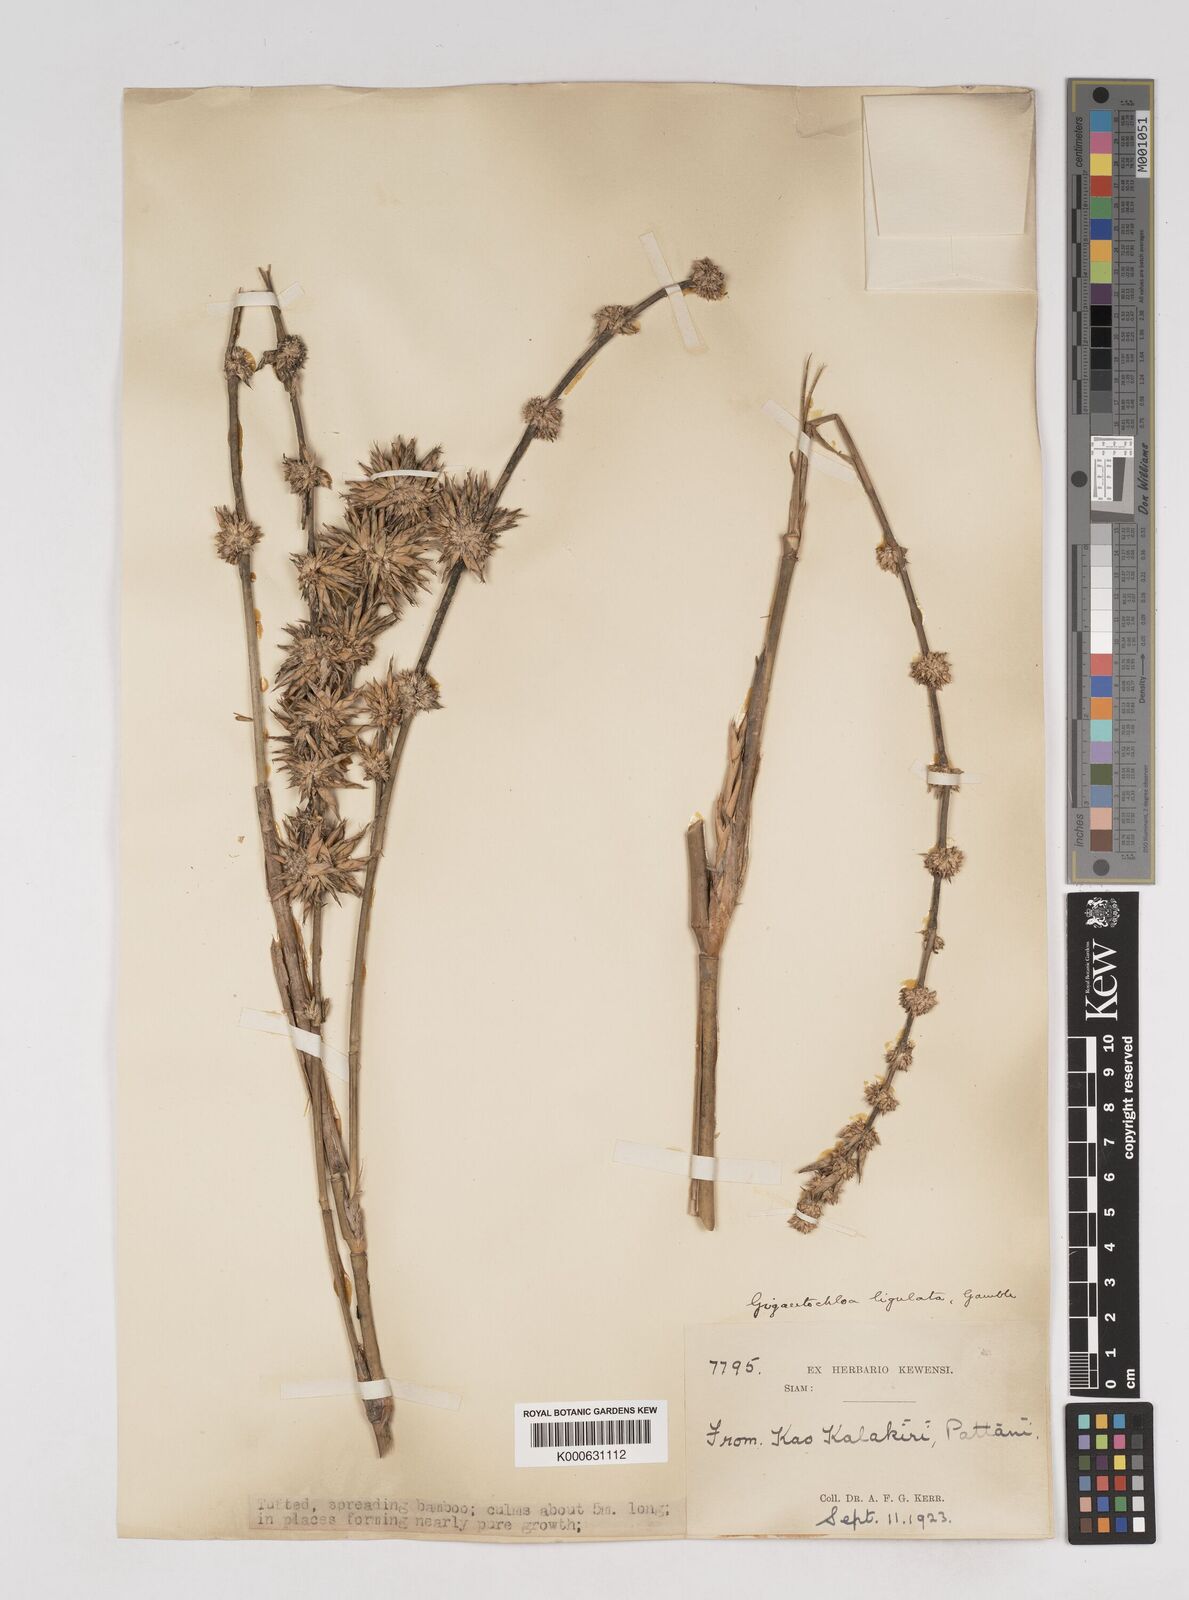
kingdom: Plantae
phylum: Tracheophyta
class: Liliopsida
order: Poales
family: Poaceae
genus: Gigantochloa
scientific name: Gigantochloa ligulata
